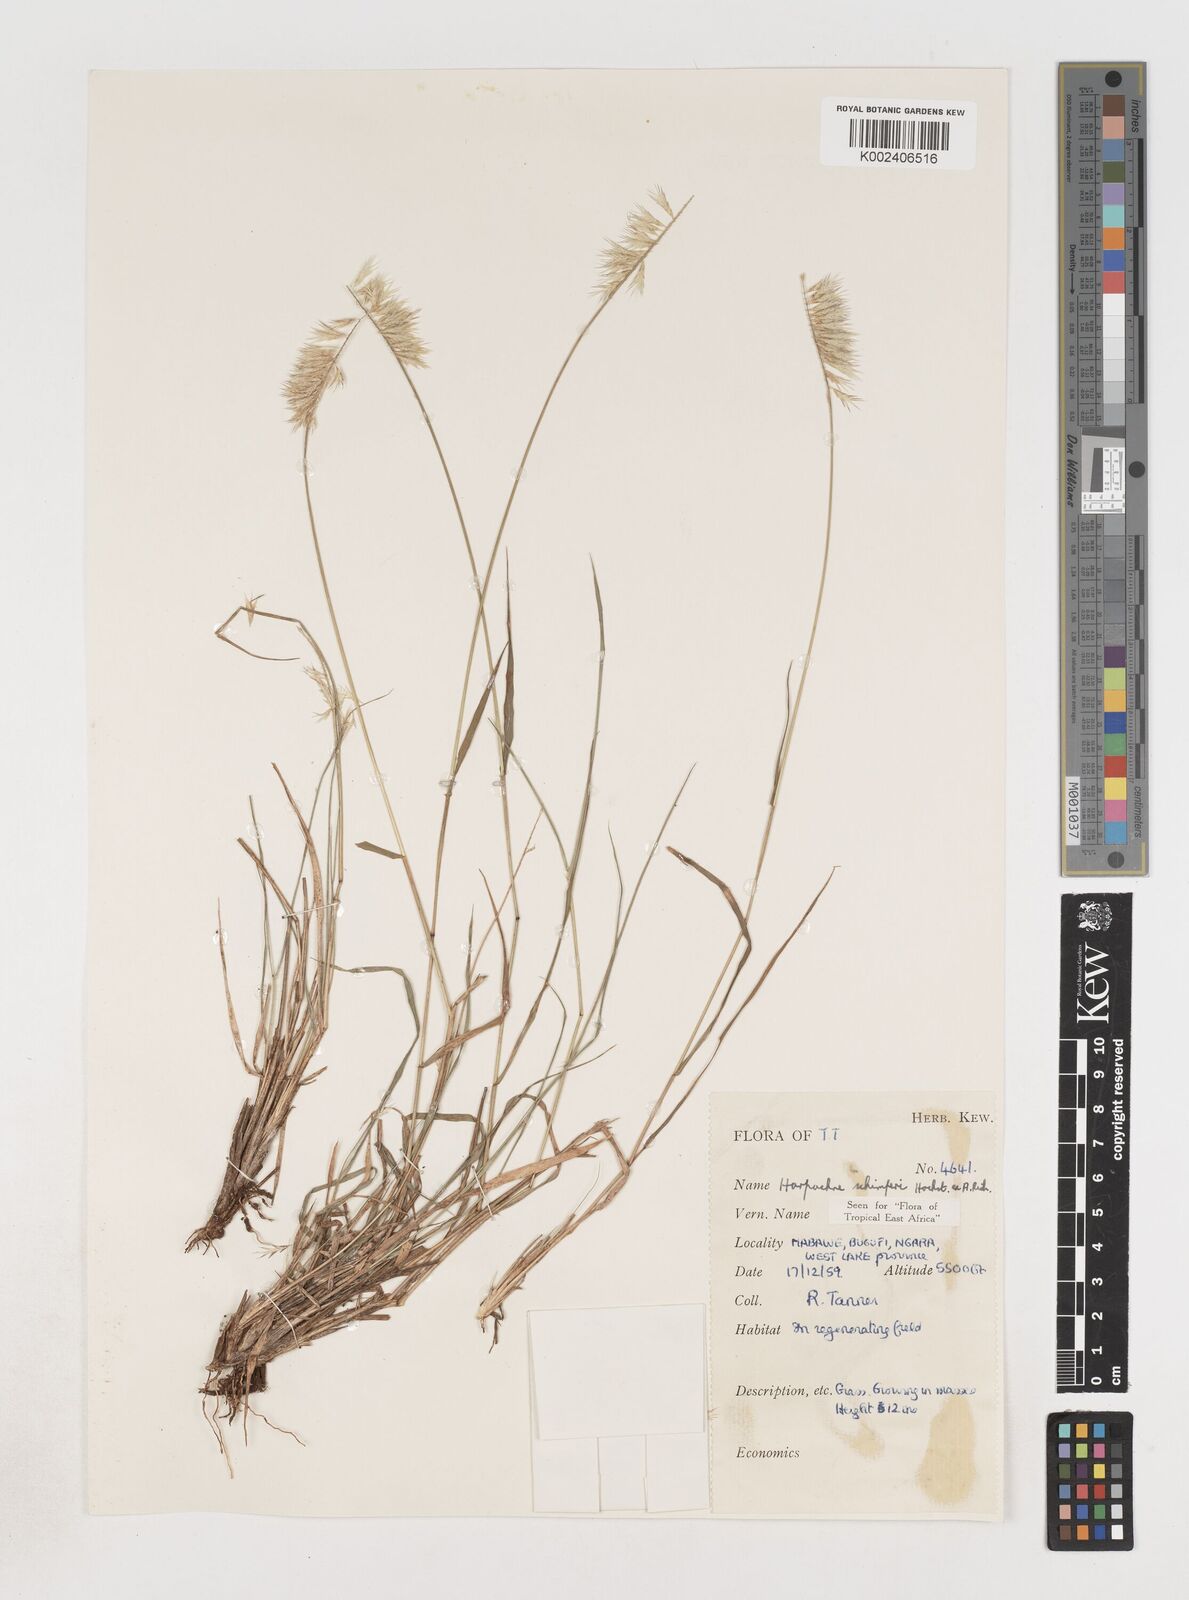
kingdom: Plantae
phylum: Tracheophyta
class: Liliopsida
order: Poales
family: Poaceae
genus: Harpachne
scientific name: Harpachne schimperi
